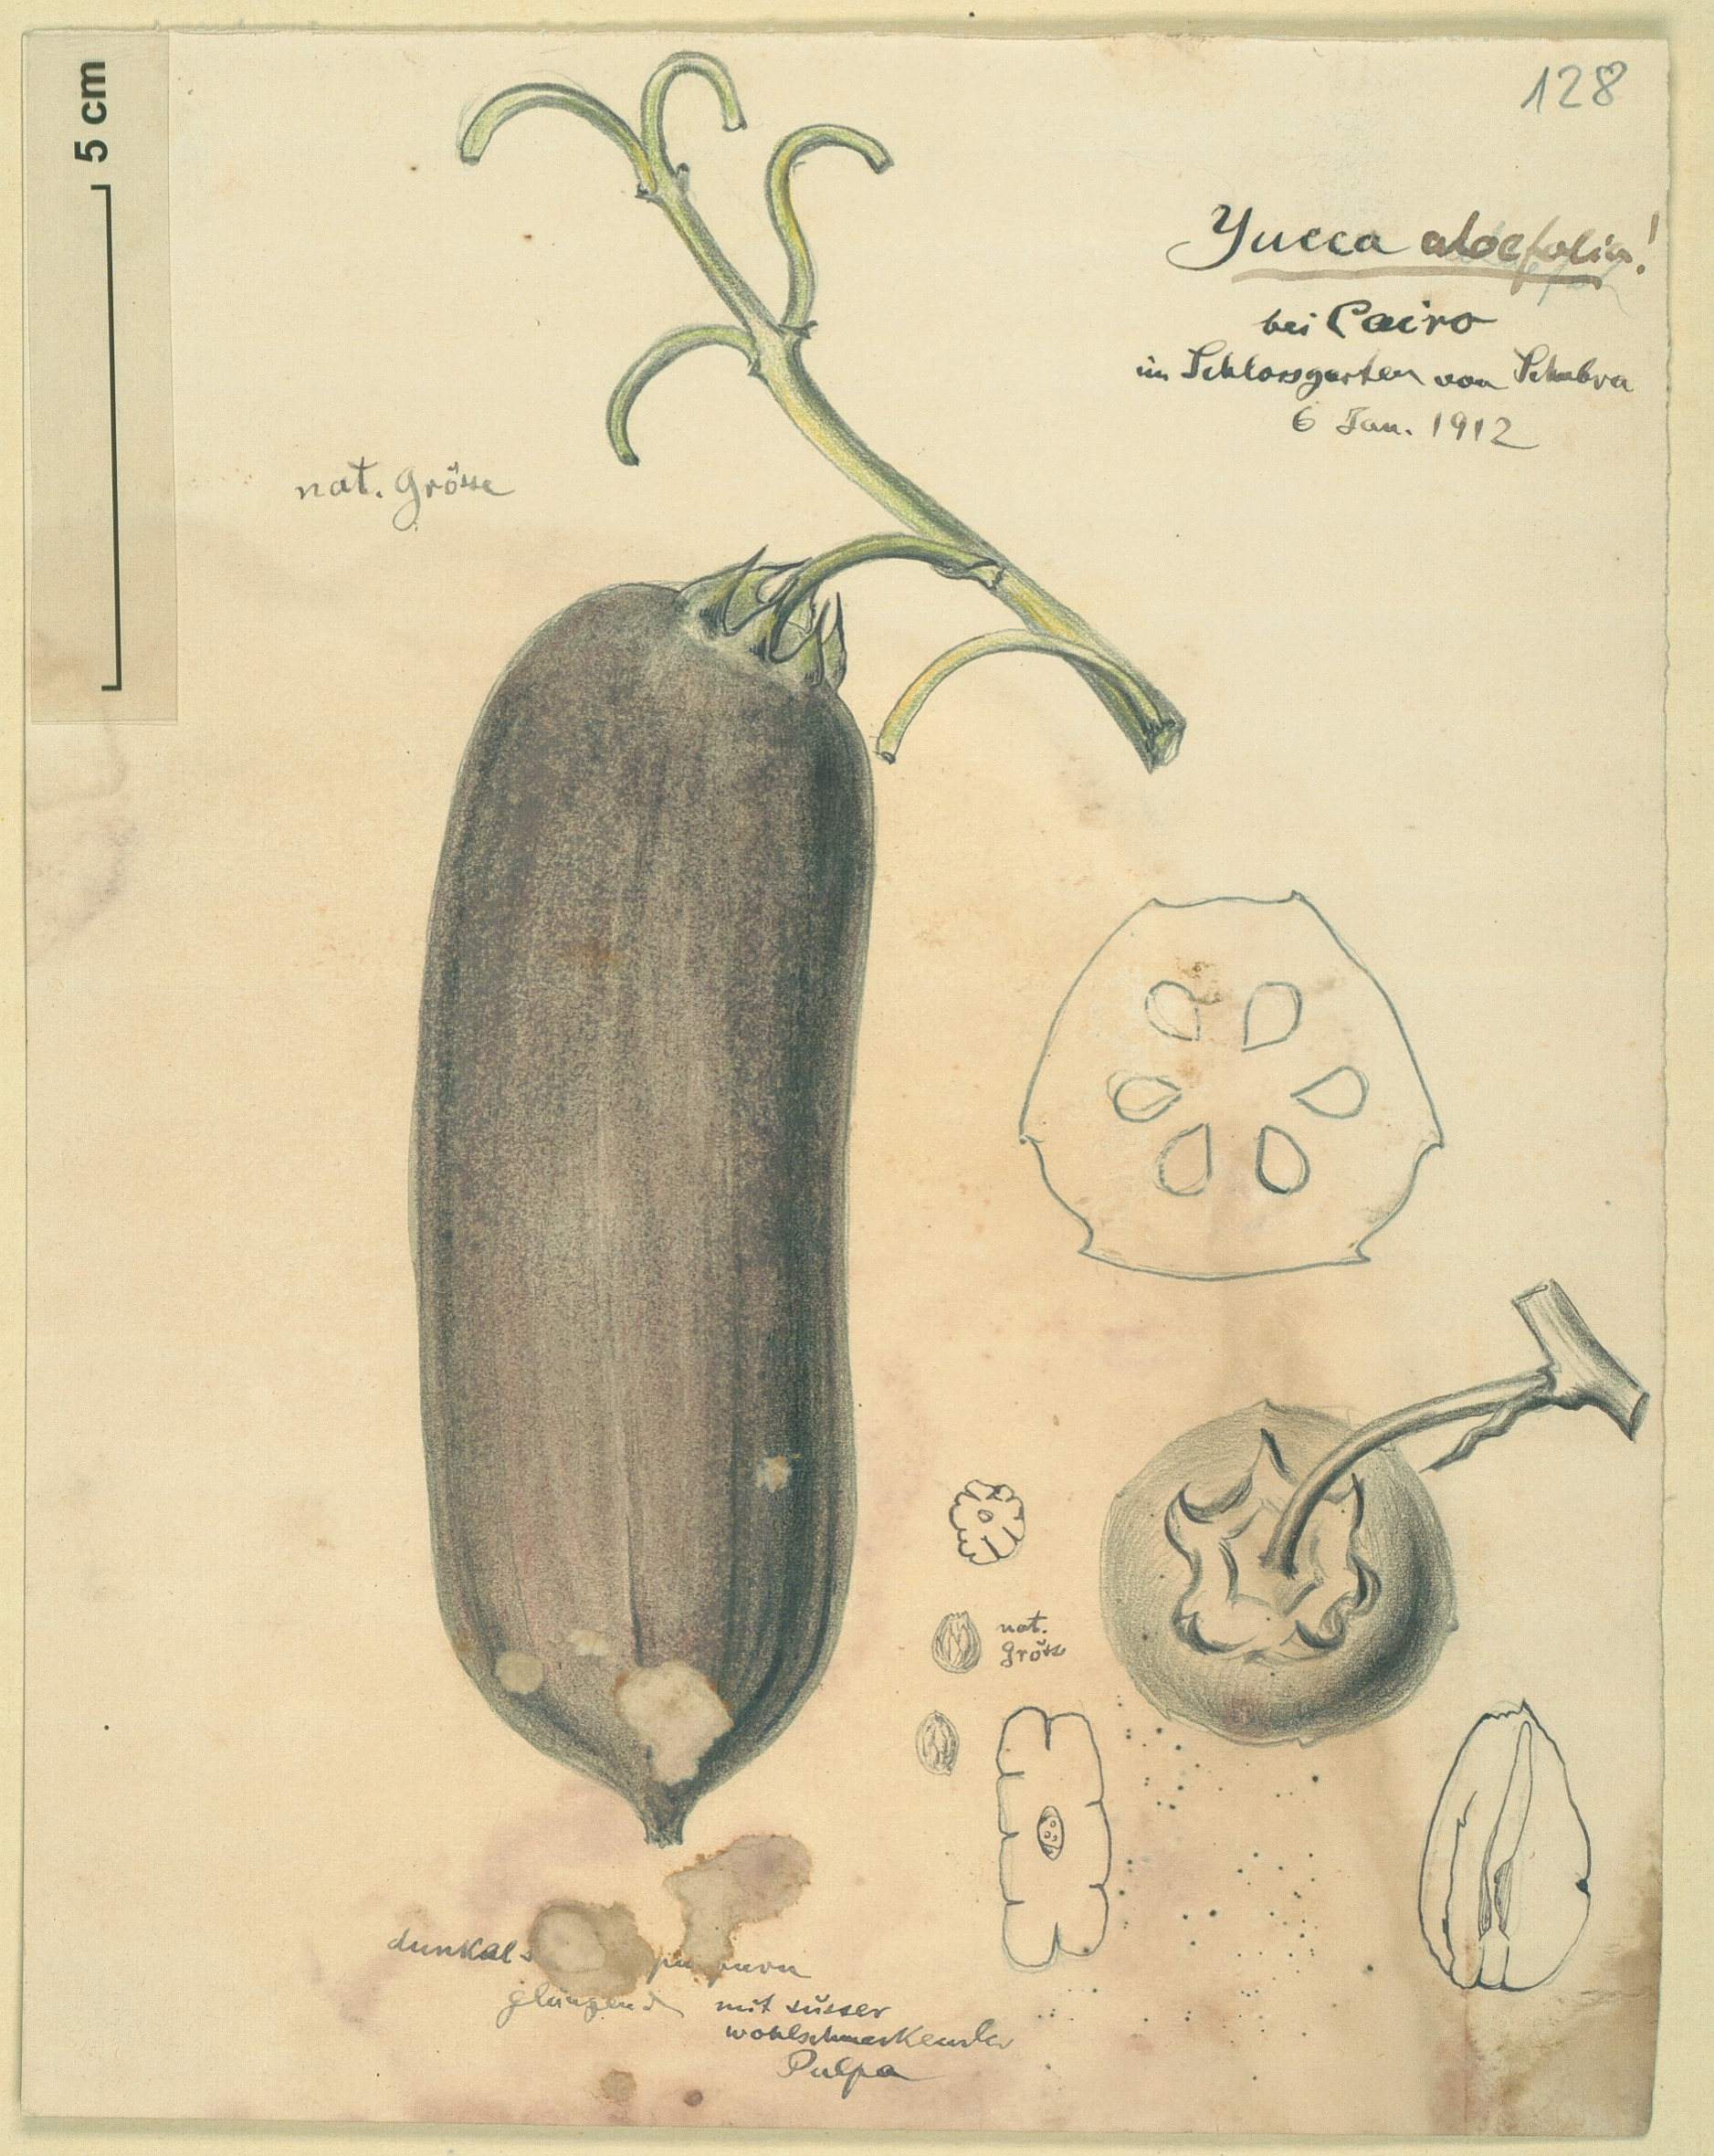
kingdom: Plantae
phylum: Tracheophyta
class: Liliopsida
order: Asparagales
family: Asparagaceae
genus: Yucca
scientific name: Yucca aloifolia
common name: Aloe yucca
